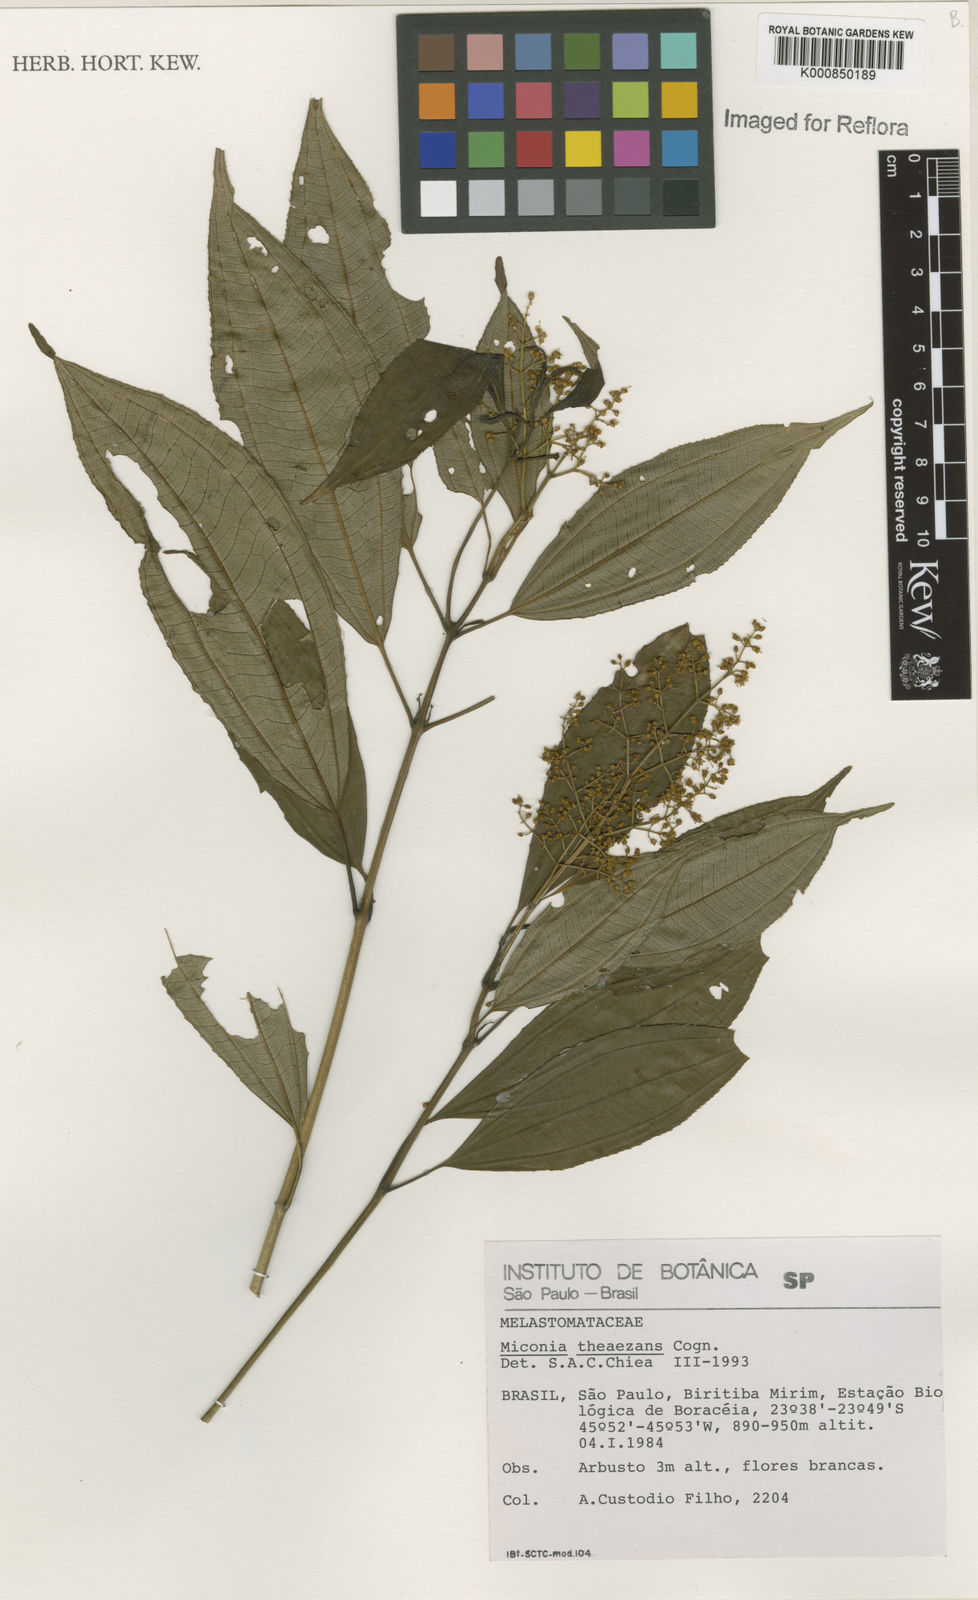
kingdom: Plantae
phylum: Tracheophyta
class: Magnoliopsida
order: Myrtales
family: Melastomataceae
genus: Miconia
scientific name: Miconia
